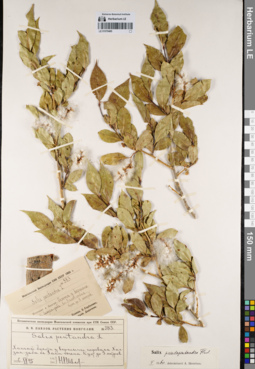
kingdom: Plantae
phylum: Tracheophyta
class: Magnoliopsida
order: Malpighiales
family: Salicaceae
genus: Salix
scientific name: Salix pseudopentandra
